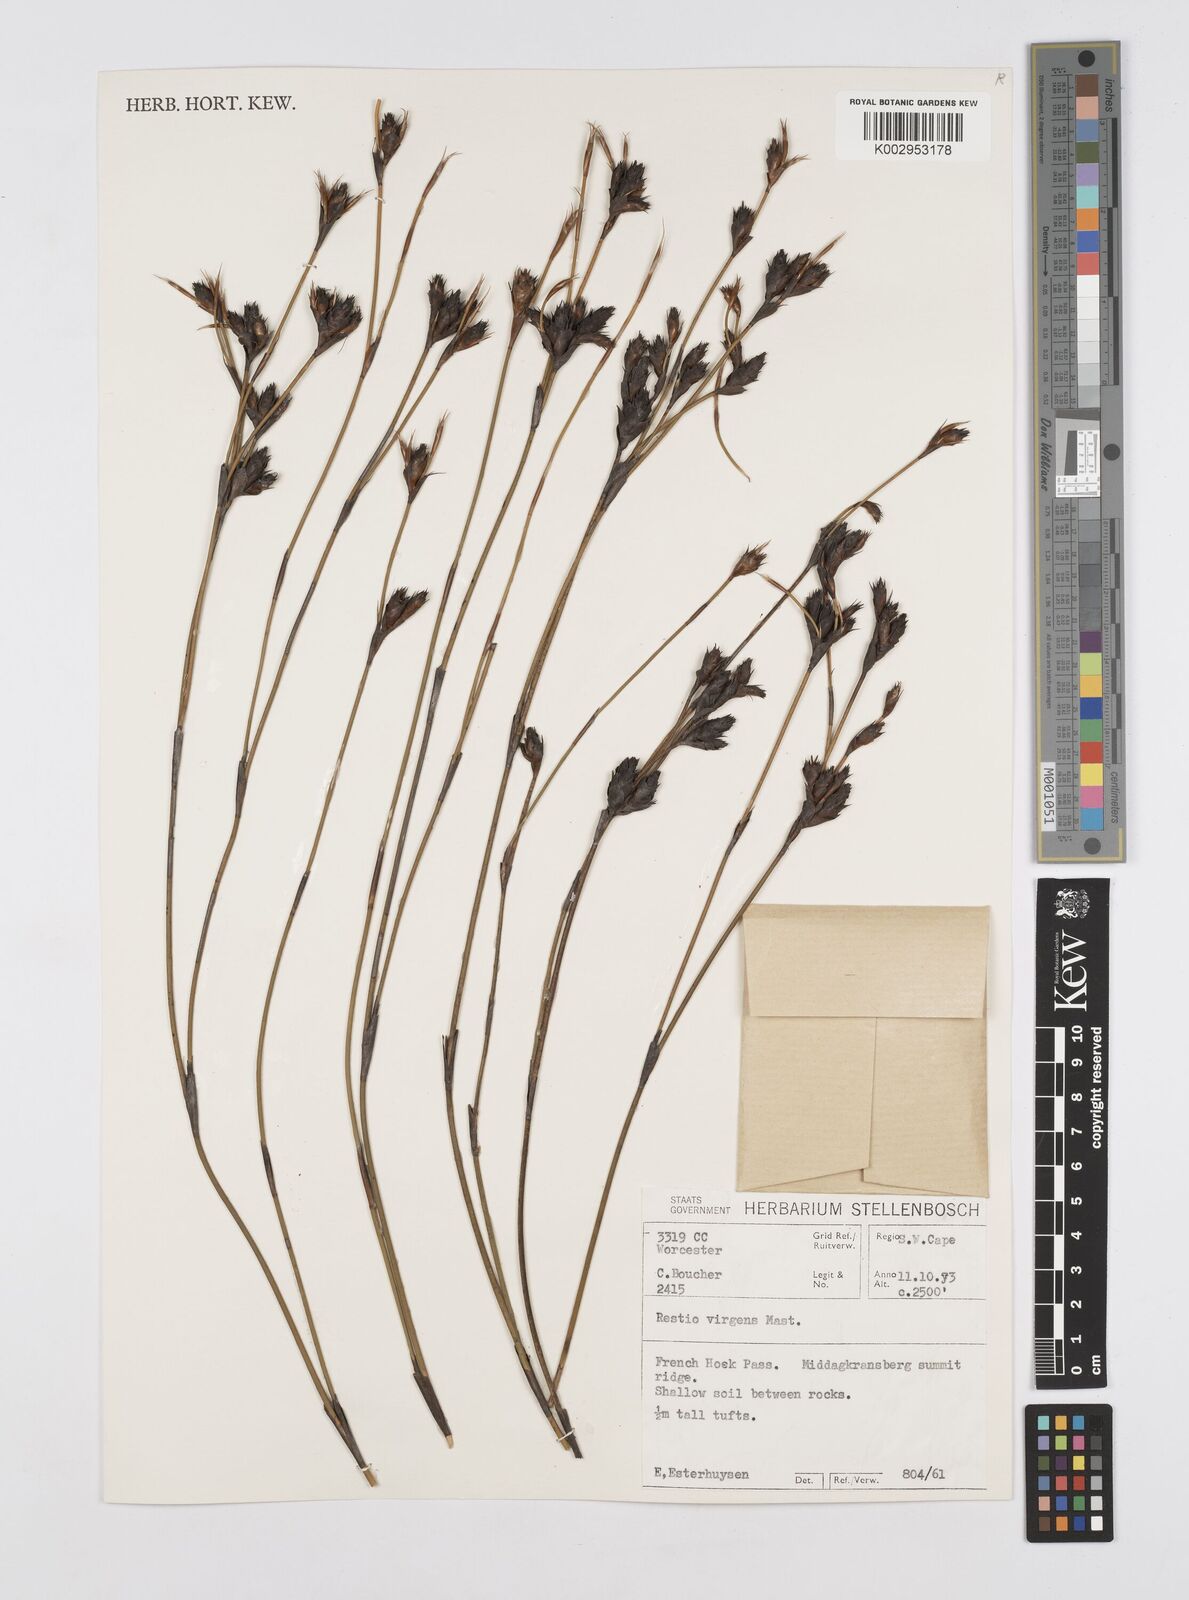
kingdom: Plantae
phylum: Tracheophyta
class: Liliopsida
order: Poales
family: Restionaceae
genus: Restio
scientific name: Restio virgeus
